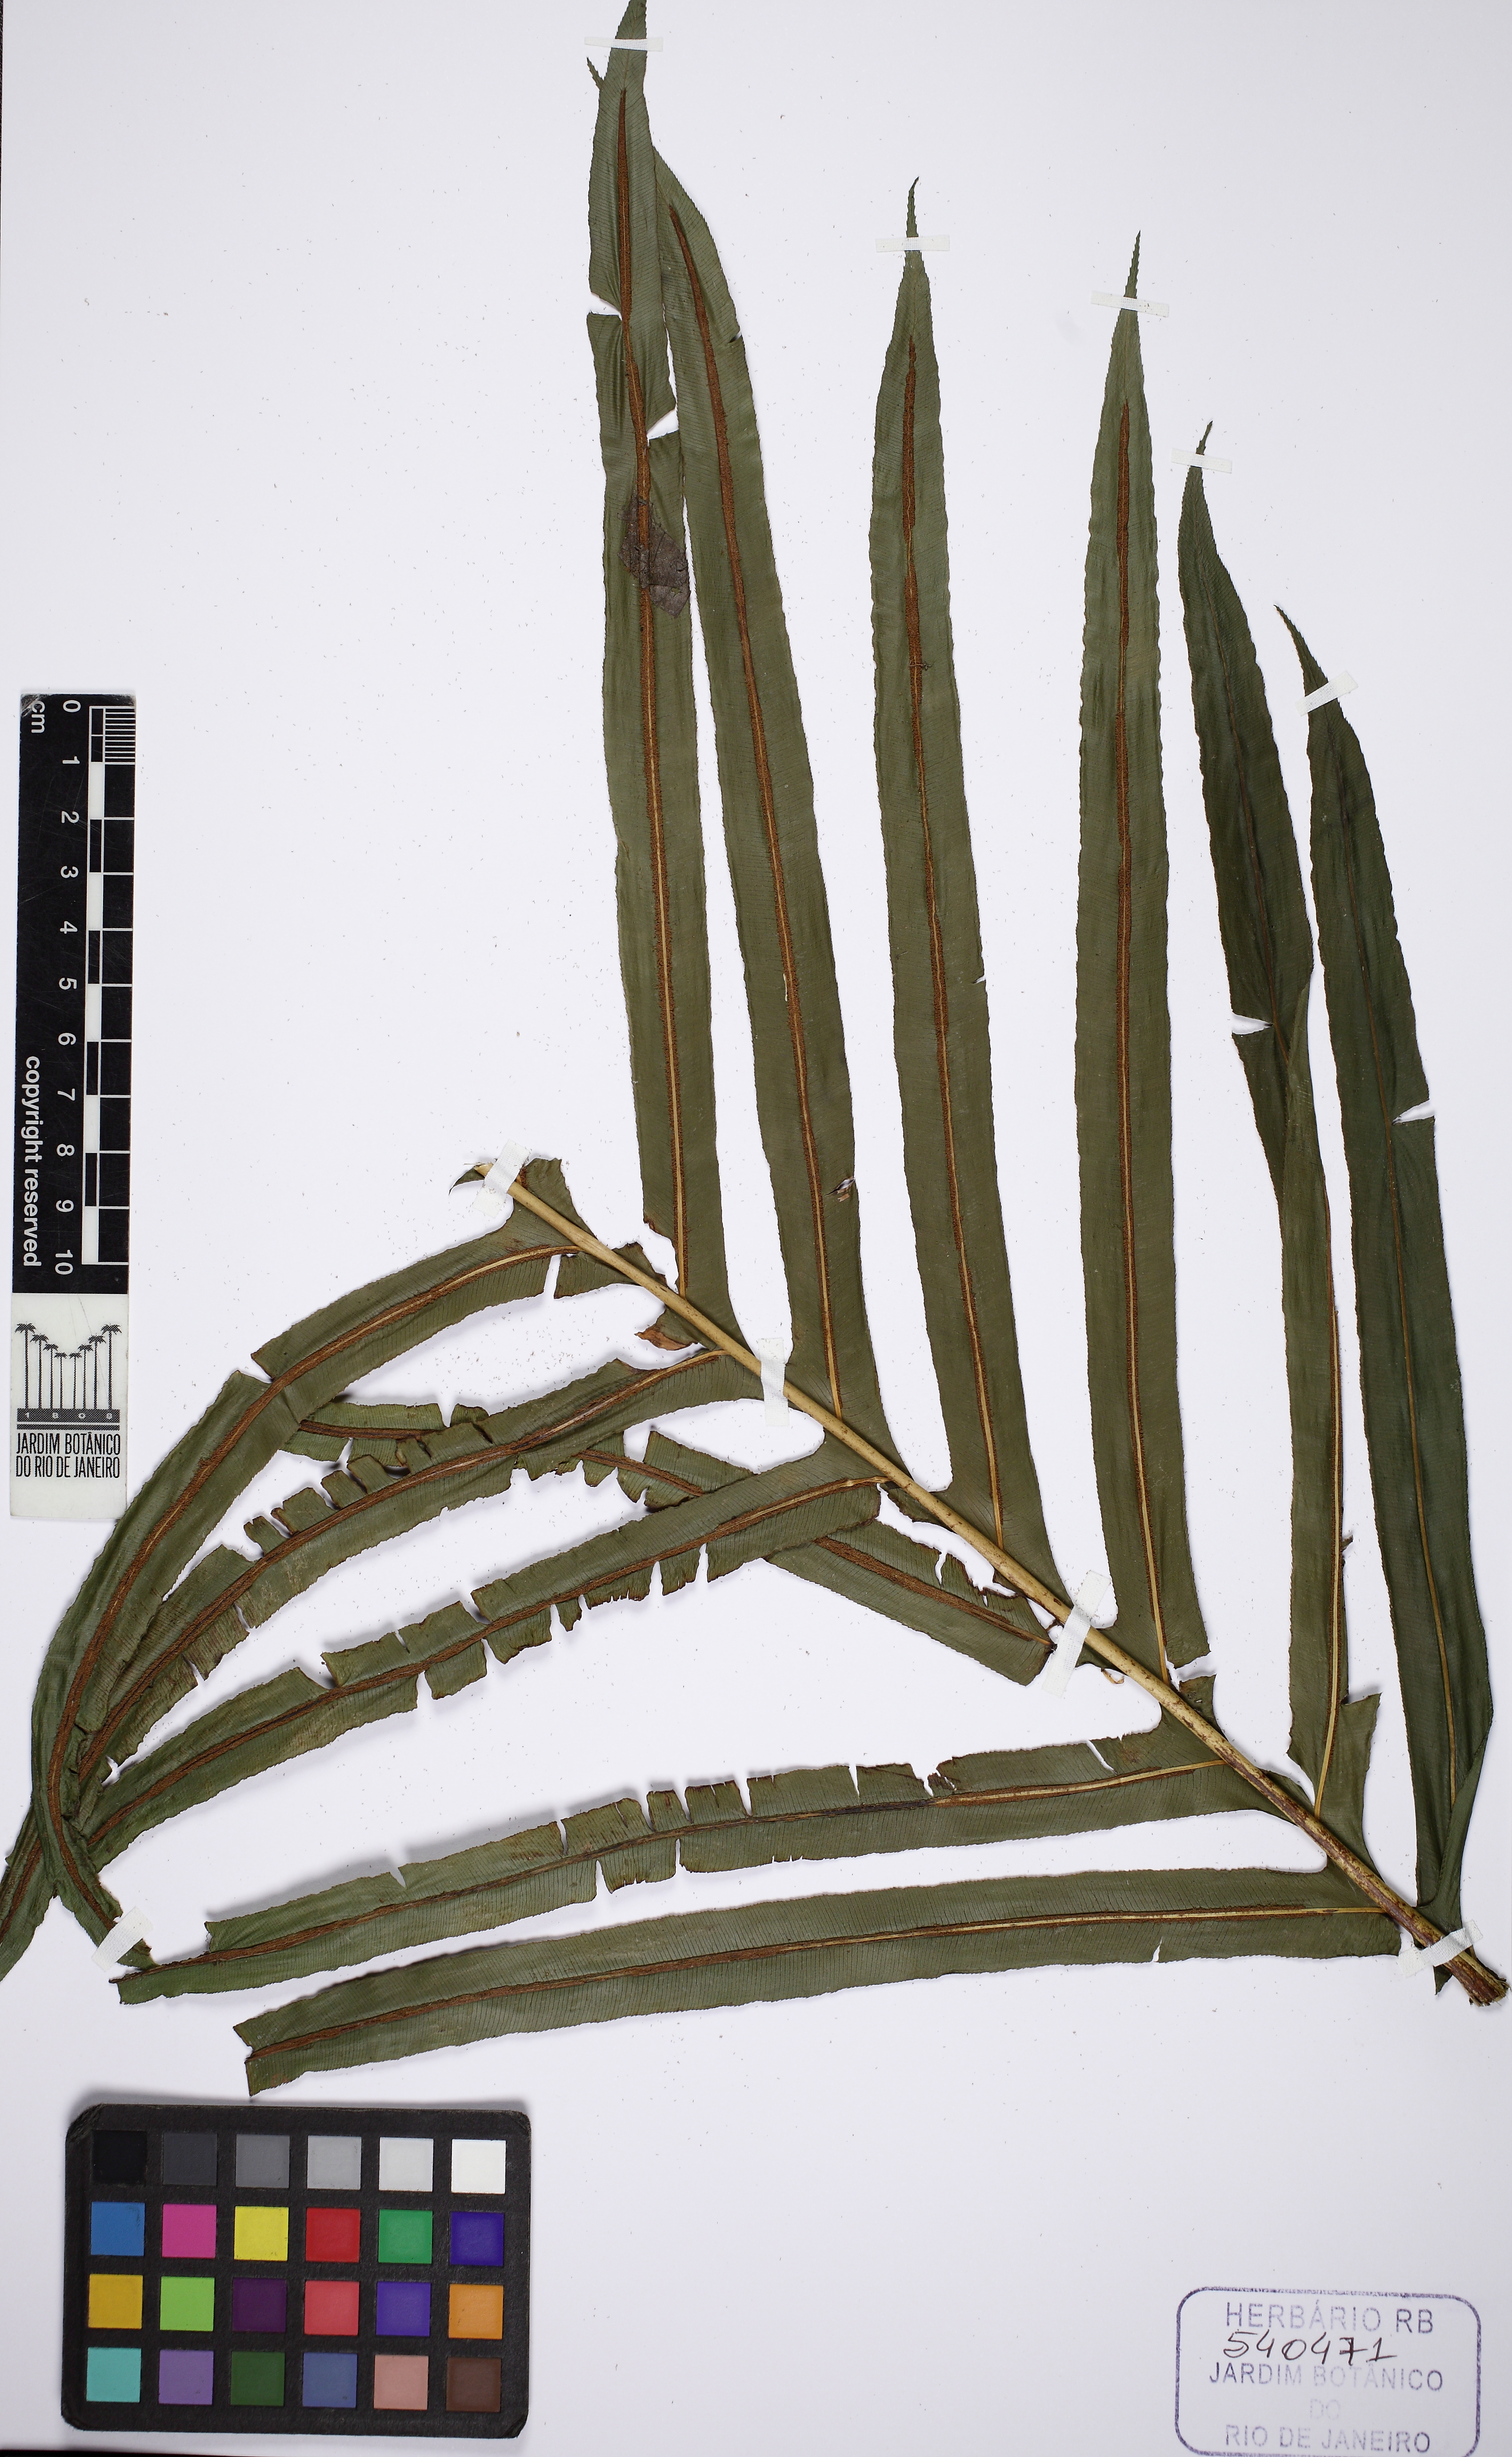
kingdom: Plantae
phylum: Tracheophyta
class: Polypodiopsida
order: Polypodiales
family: Blechnaceae
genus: Neoblechnum
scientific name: Neoblechnum brasiliense
